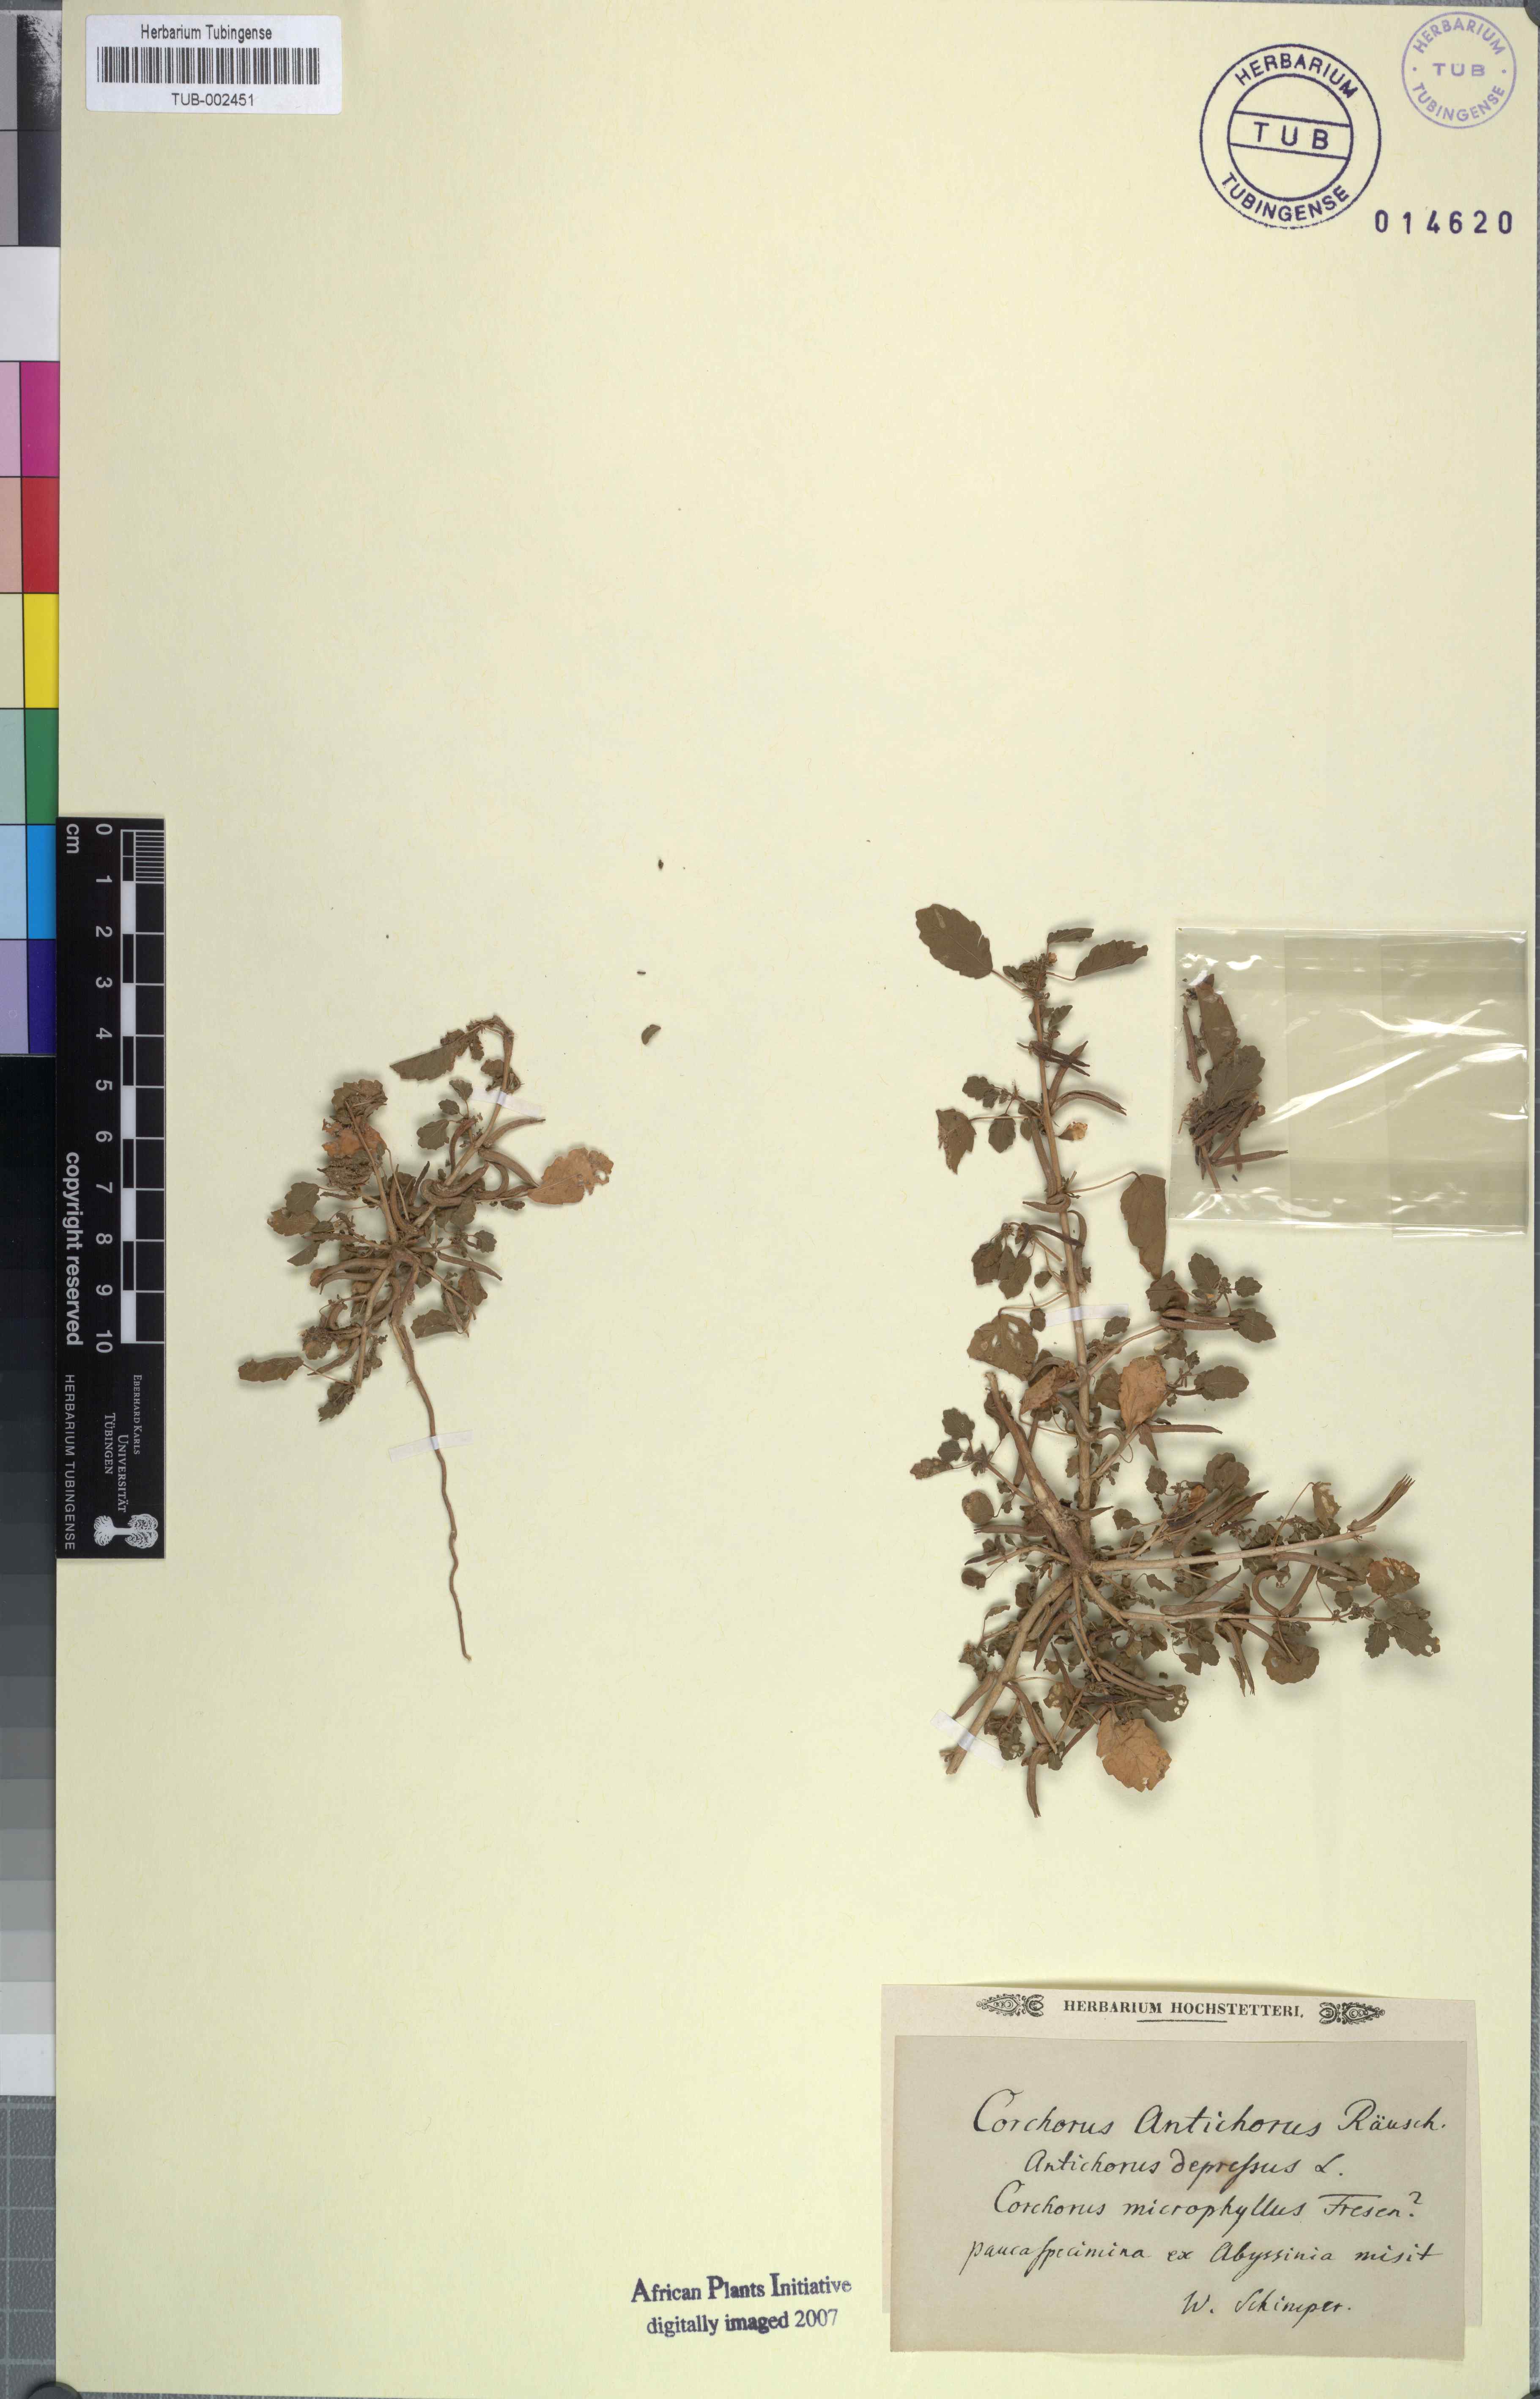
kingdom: Plantae
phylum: Tracheophyta
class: Magnoliopsida
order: Malvales
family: Malvaceae
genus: Corchorus
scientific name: Corchorus depressus
